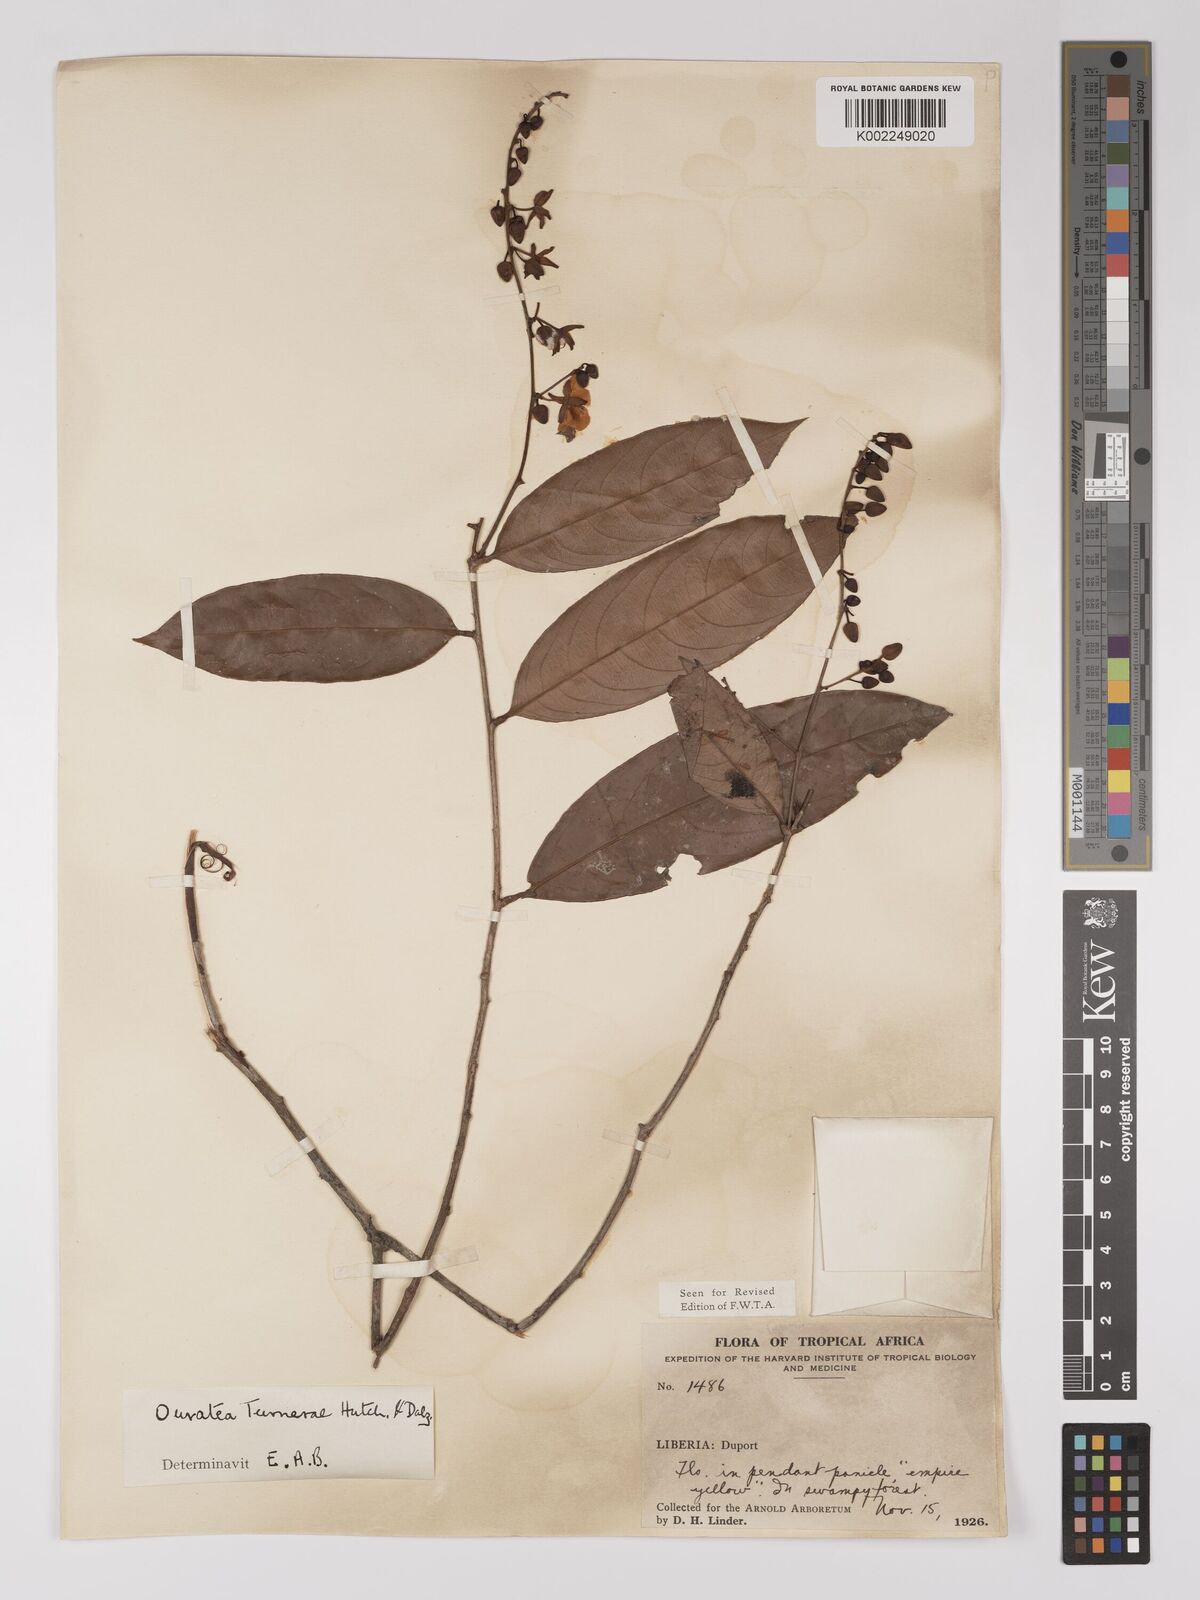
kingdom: Plantae
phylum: Tracheophyta
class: Magnoliopsida
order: Malpighiales
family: Ochnaceae
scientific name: Ochnaceae
